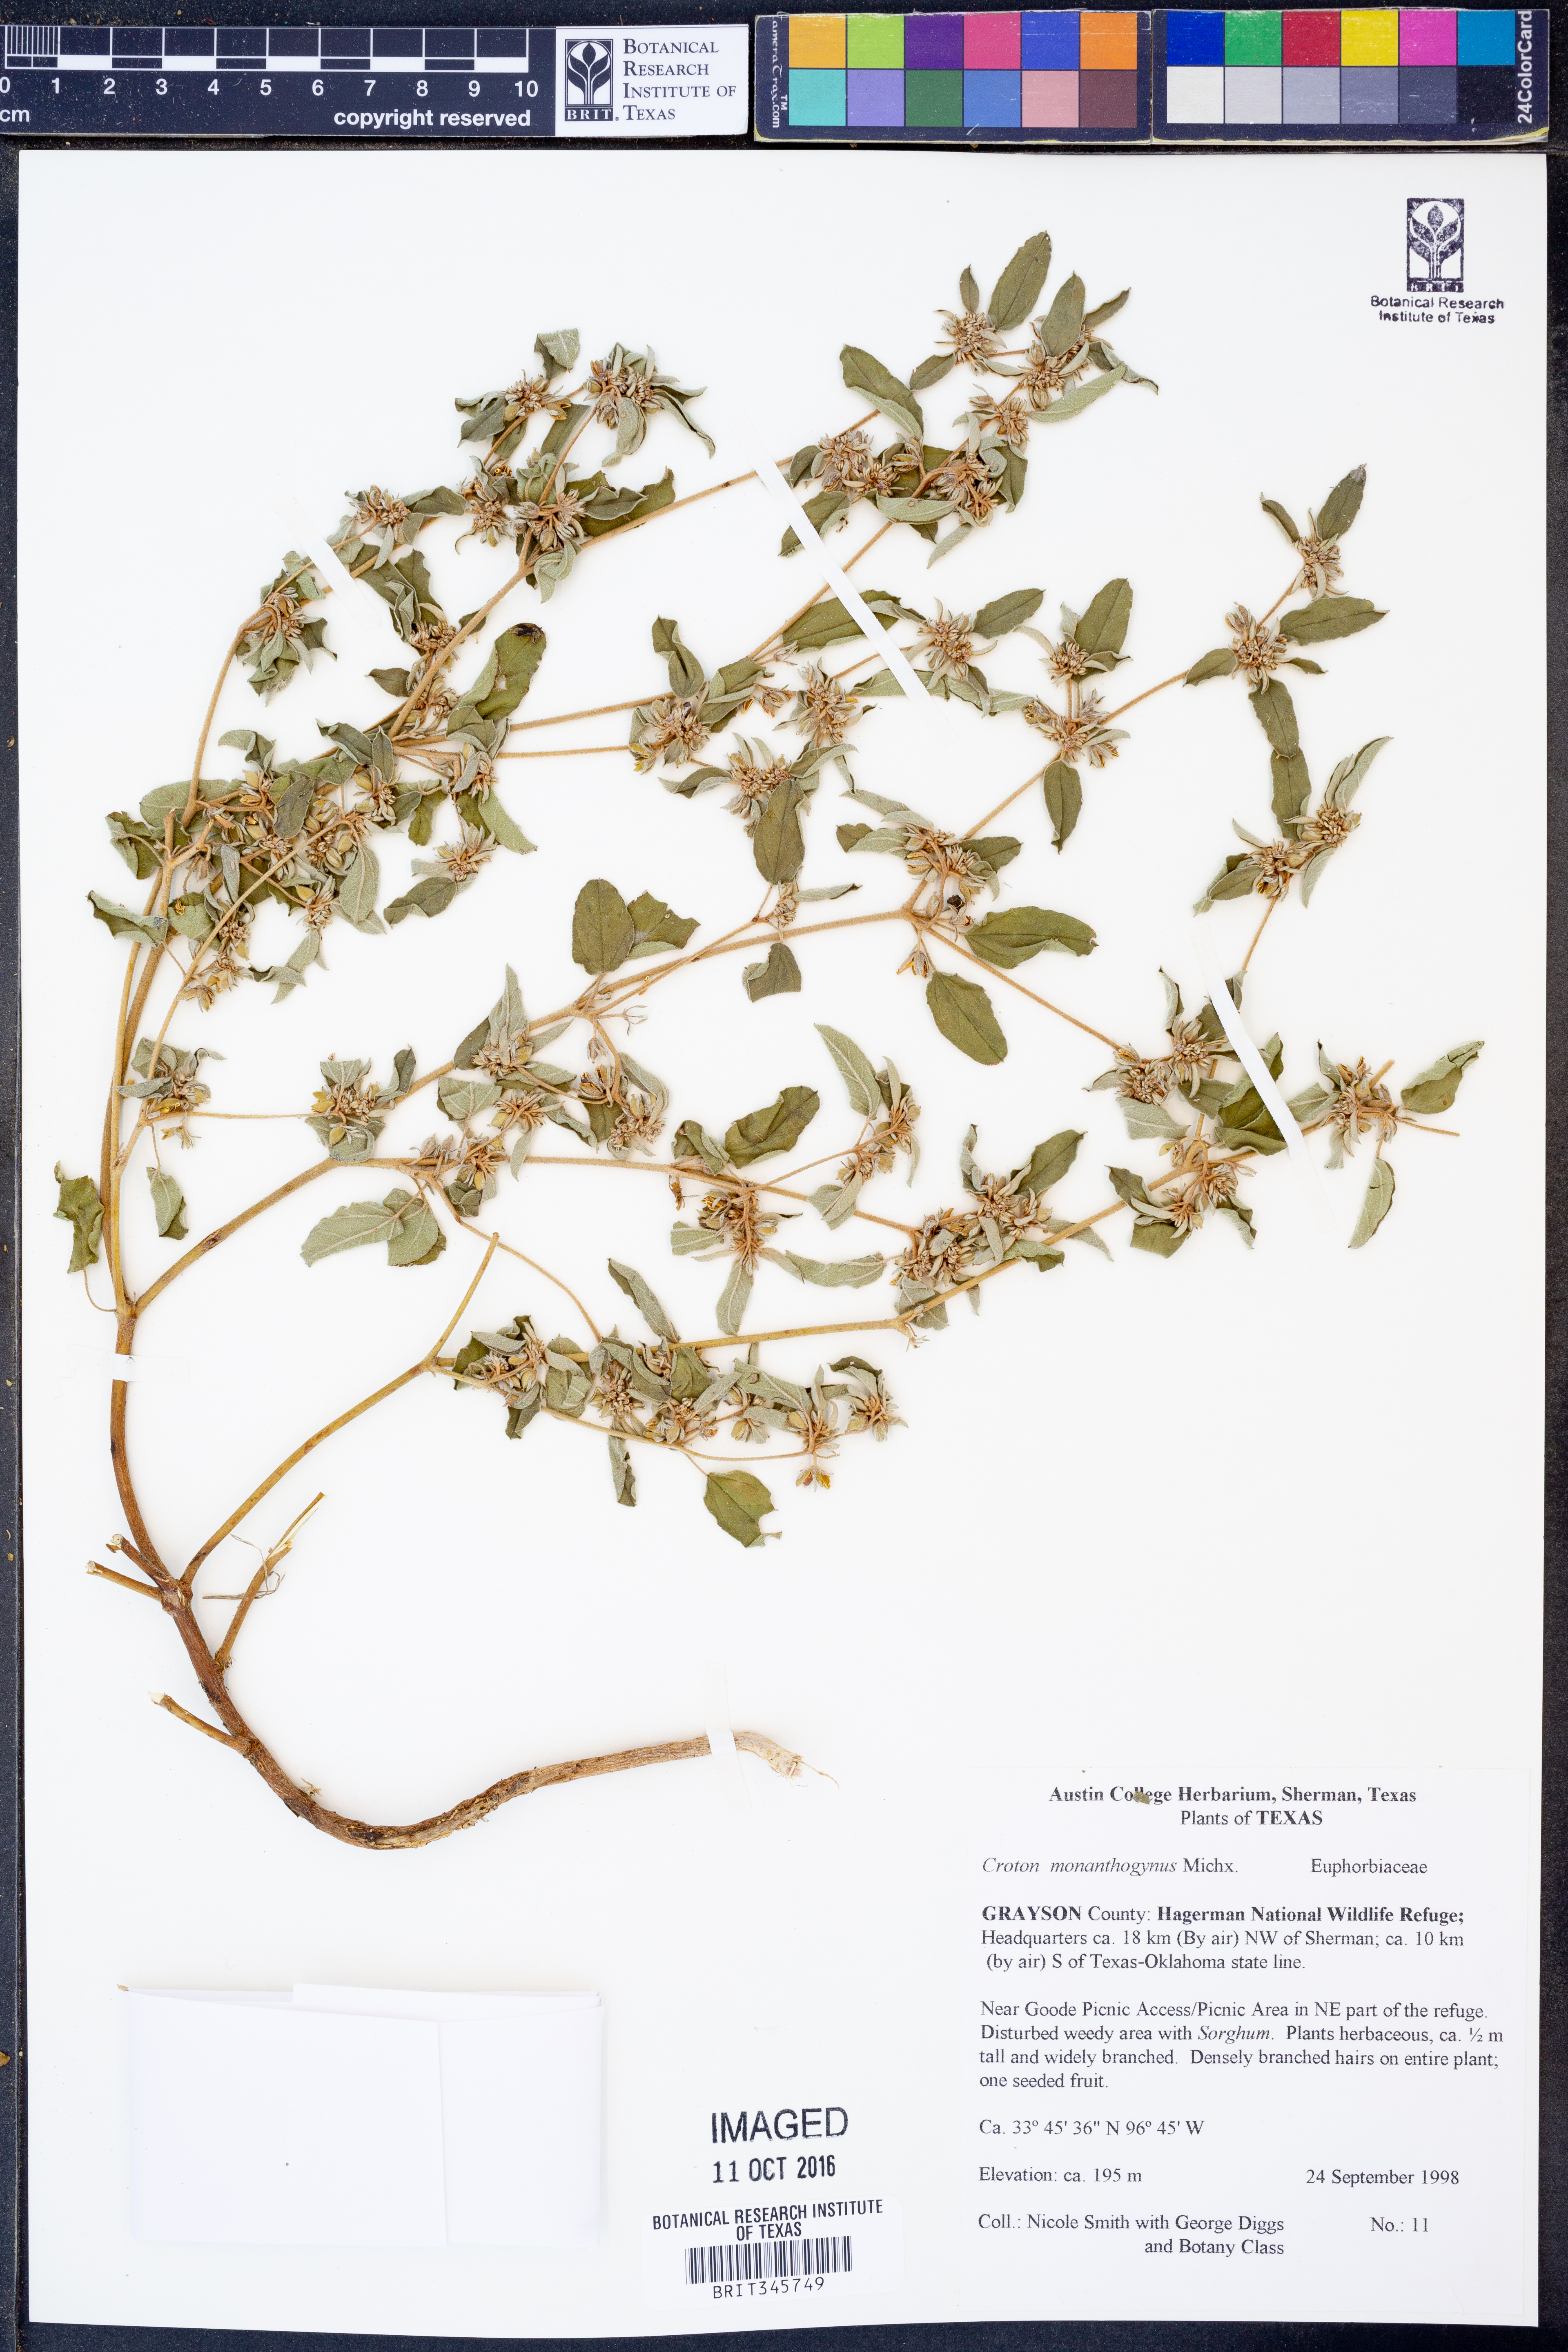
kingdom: Plantae
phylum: Tracheophyta
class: Magnoliopsida
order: Malpighiales
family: Euphorbiaceae
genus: Croton
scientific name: Croton monanthogynus
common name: One-seed croton
